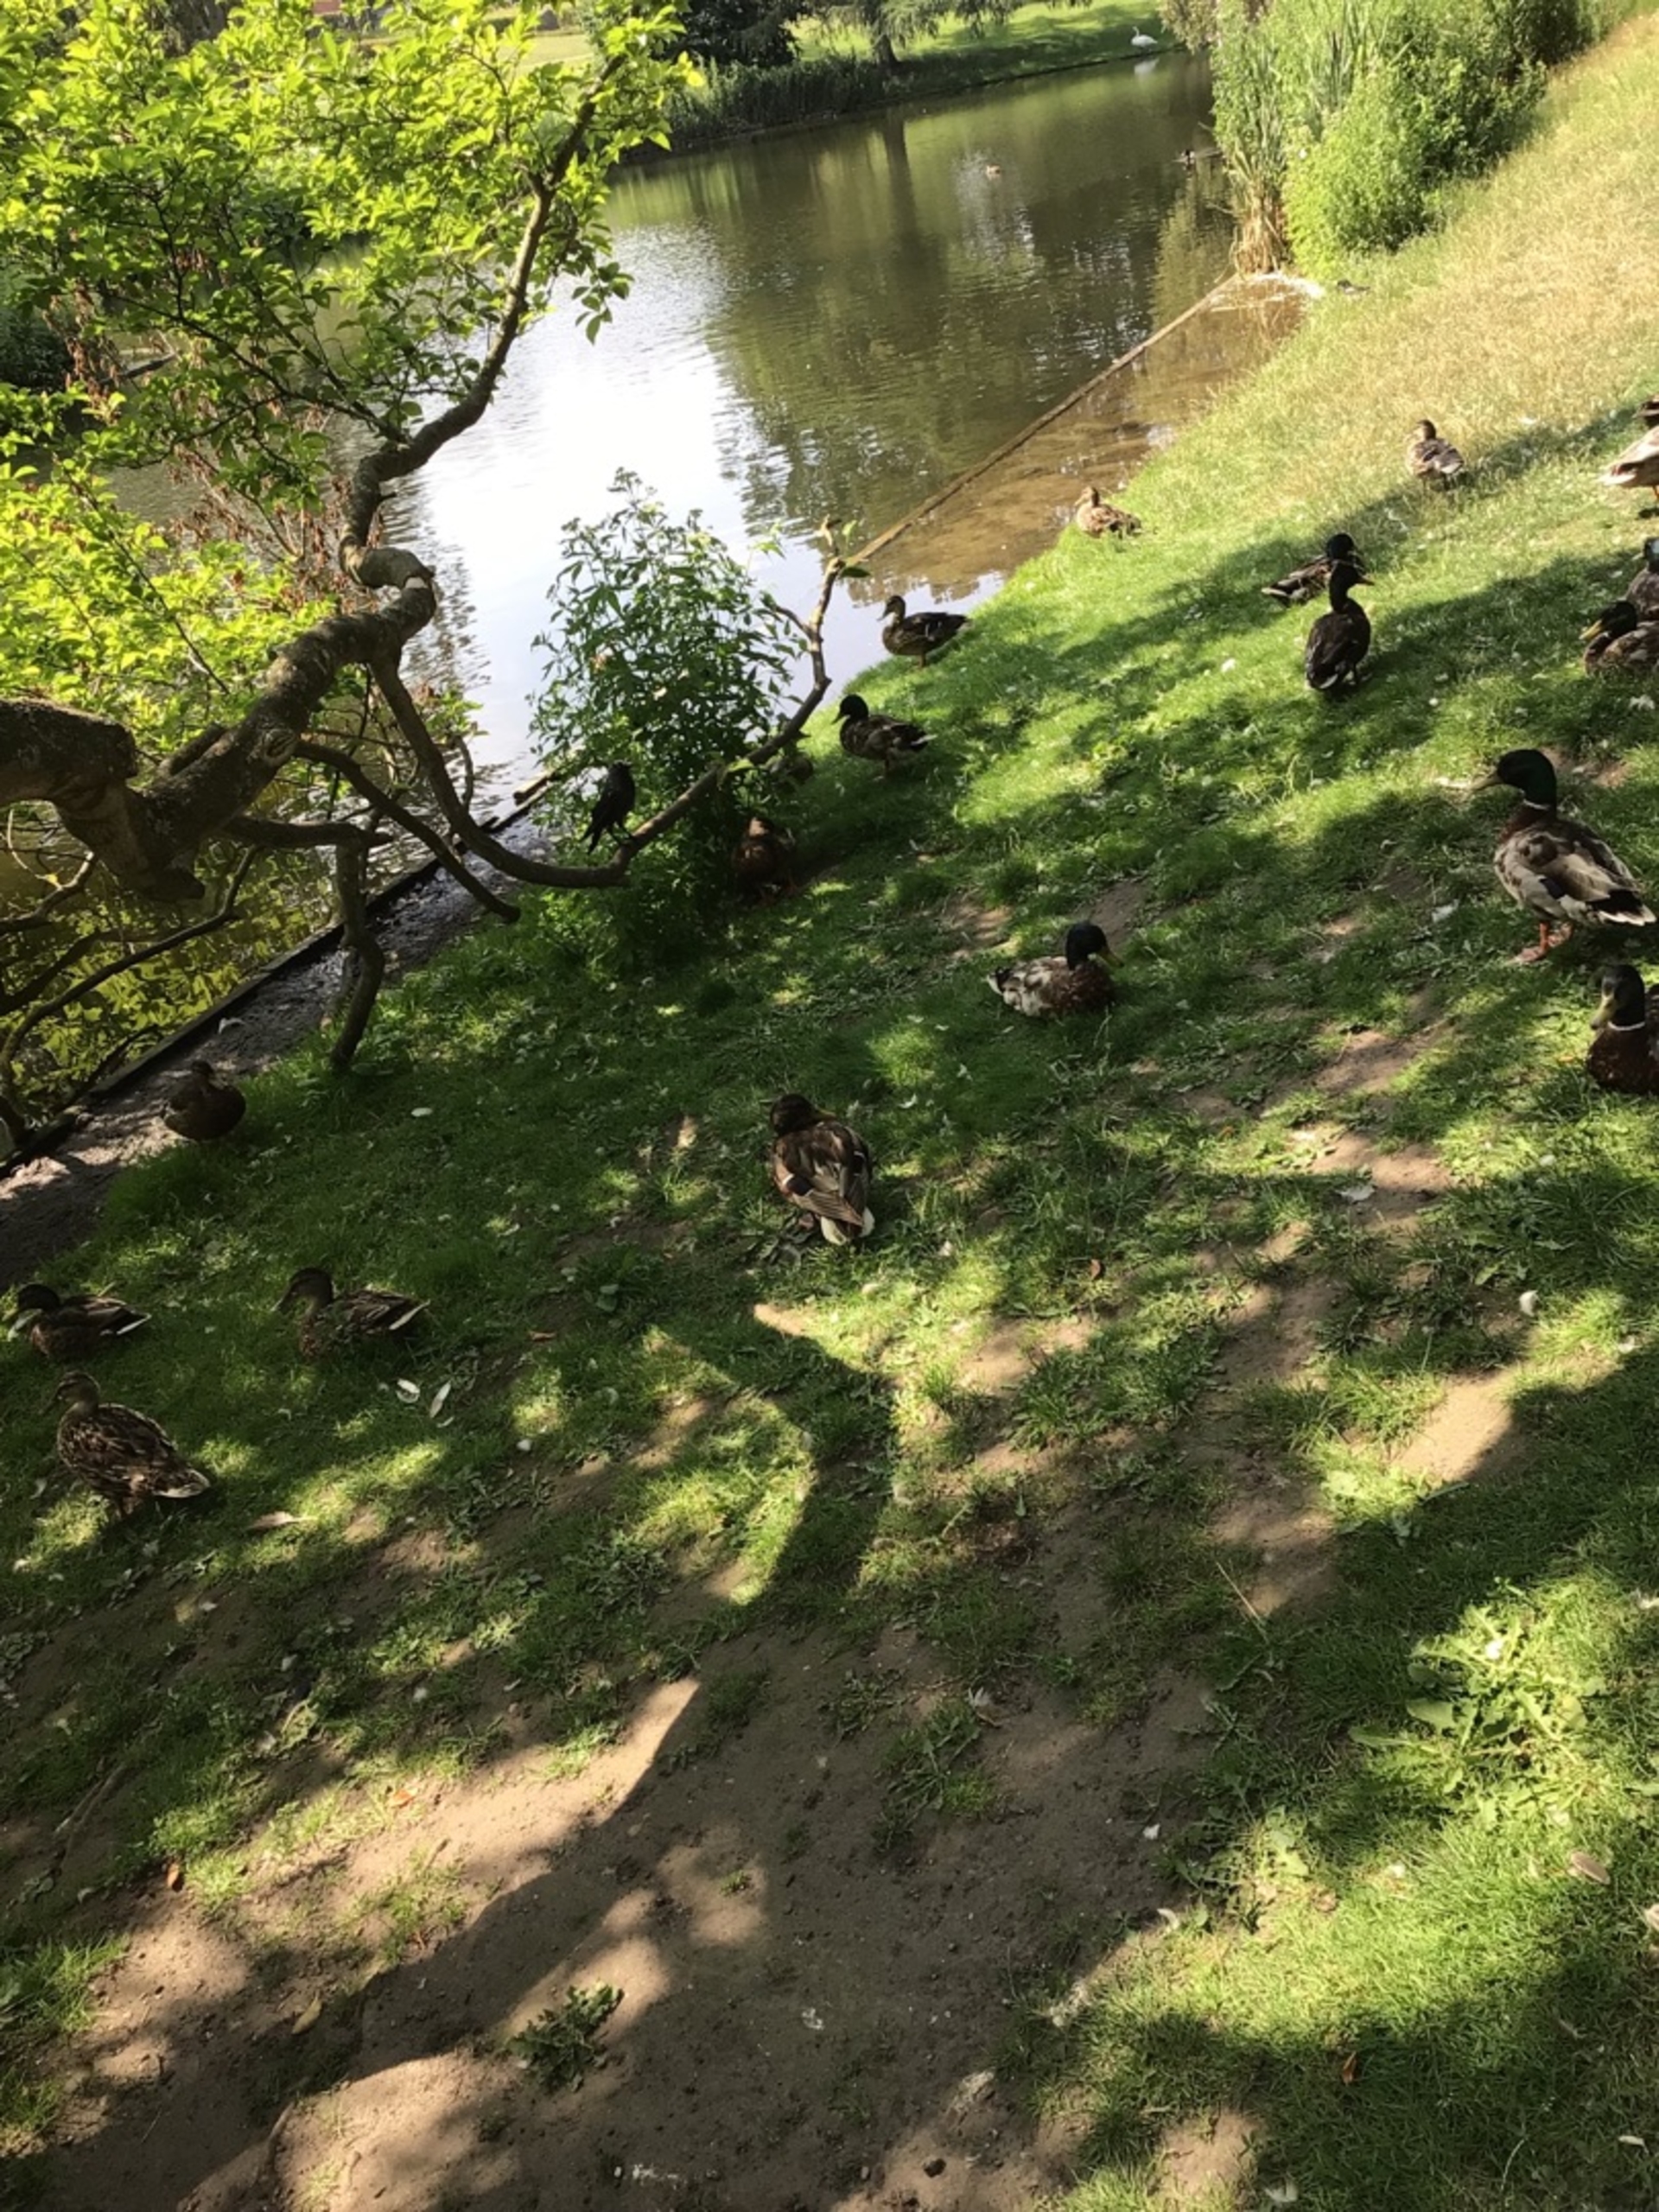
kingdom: Animalia
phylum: Chordata
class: Aves
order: Anseriformes
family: Anatidae
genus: Anas
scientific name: Anas platyrhynchos
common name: Gråand
